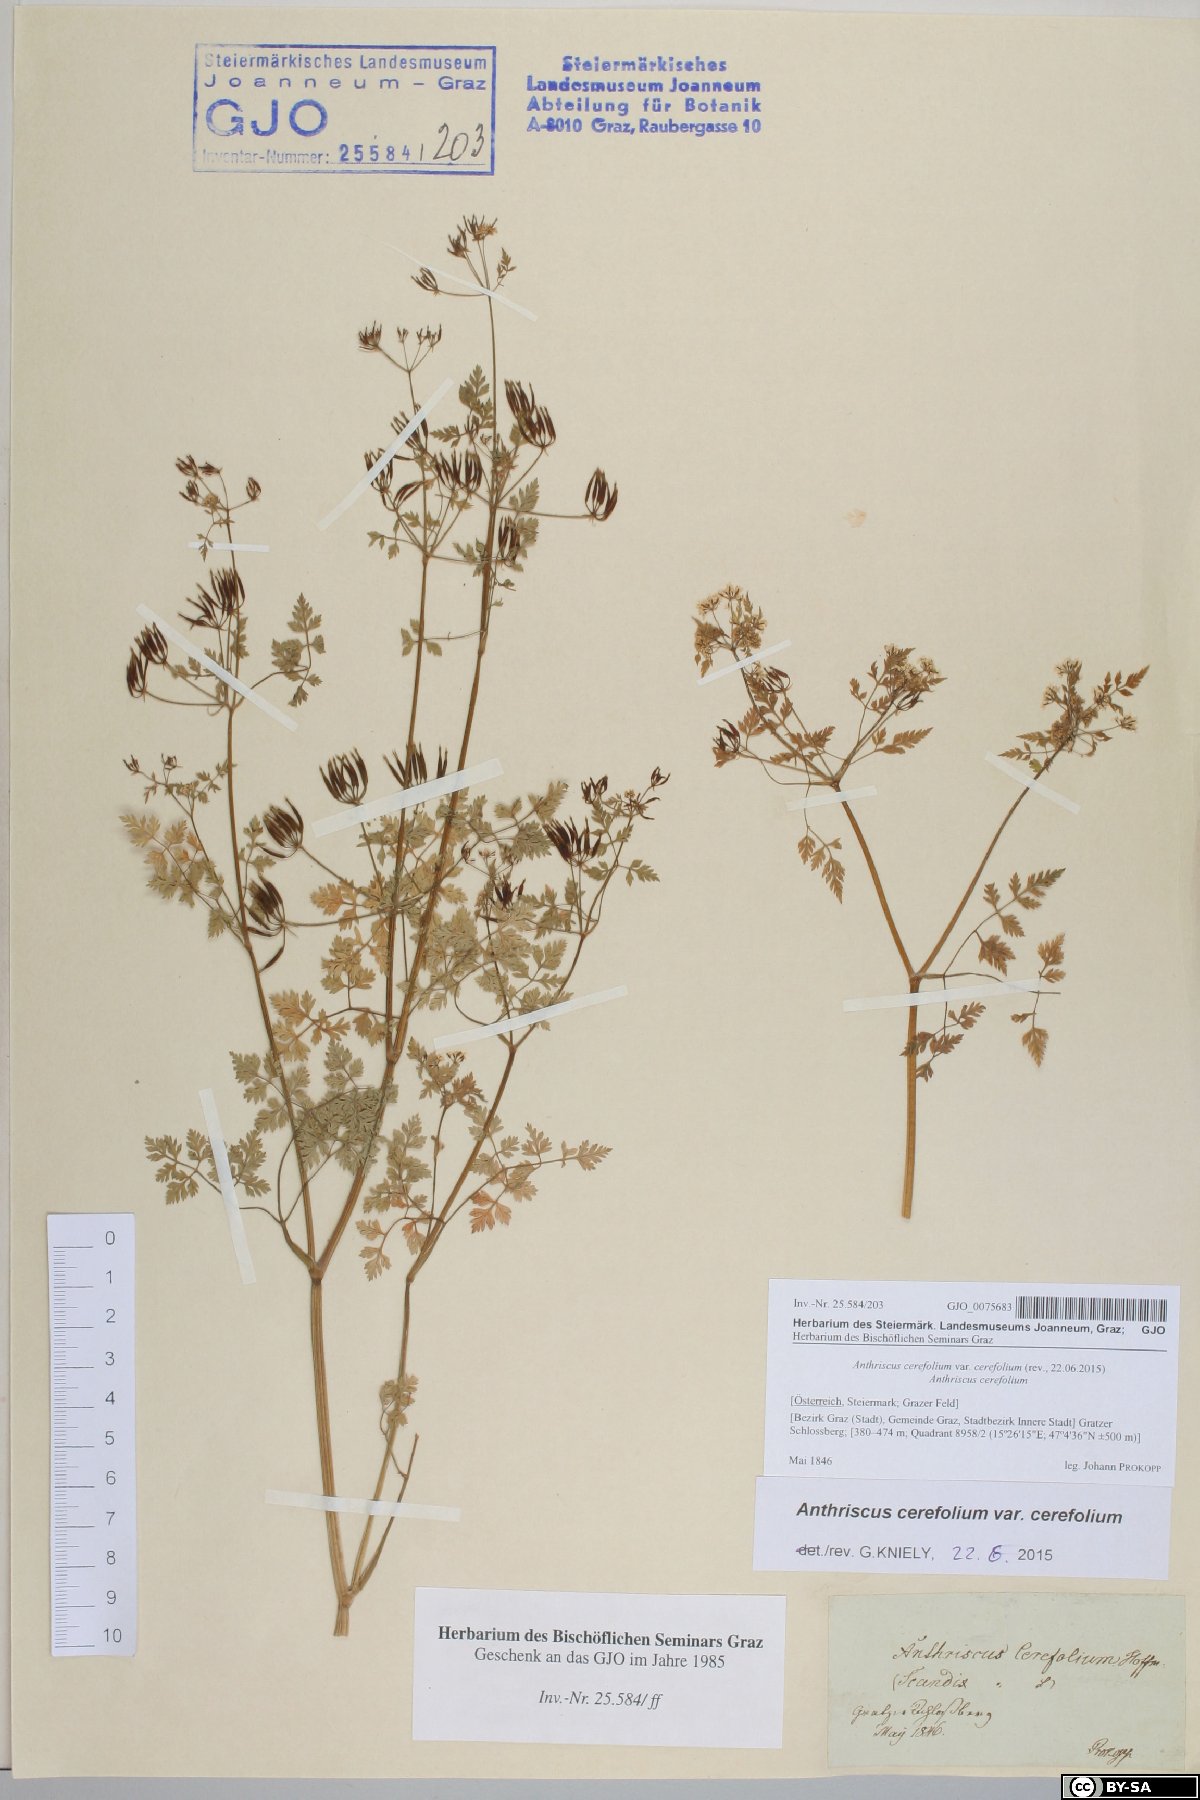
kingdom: Plantae
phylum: Tracheophyta
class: Magnoliopsida
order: Apiales
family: Apiaceae
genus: Anthriscus
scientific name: Anthriscus cerefolium
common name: Garden chervil
